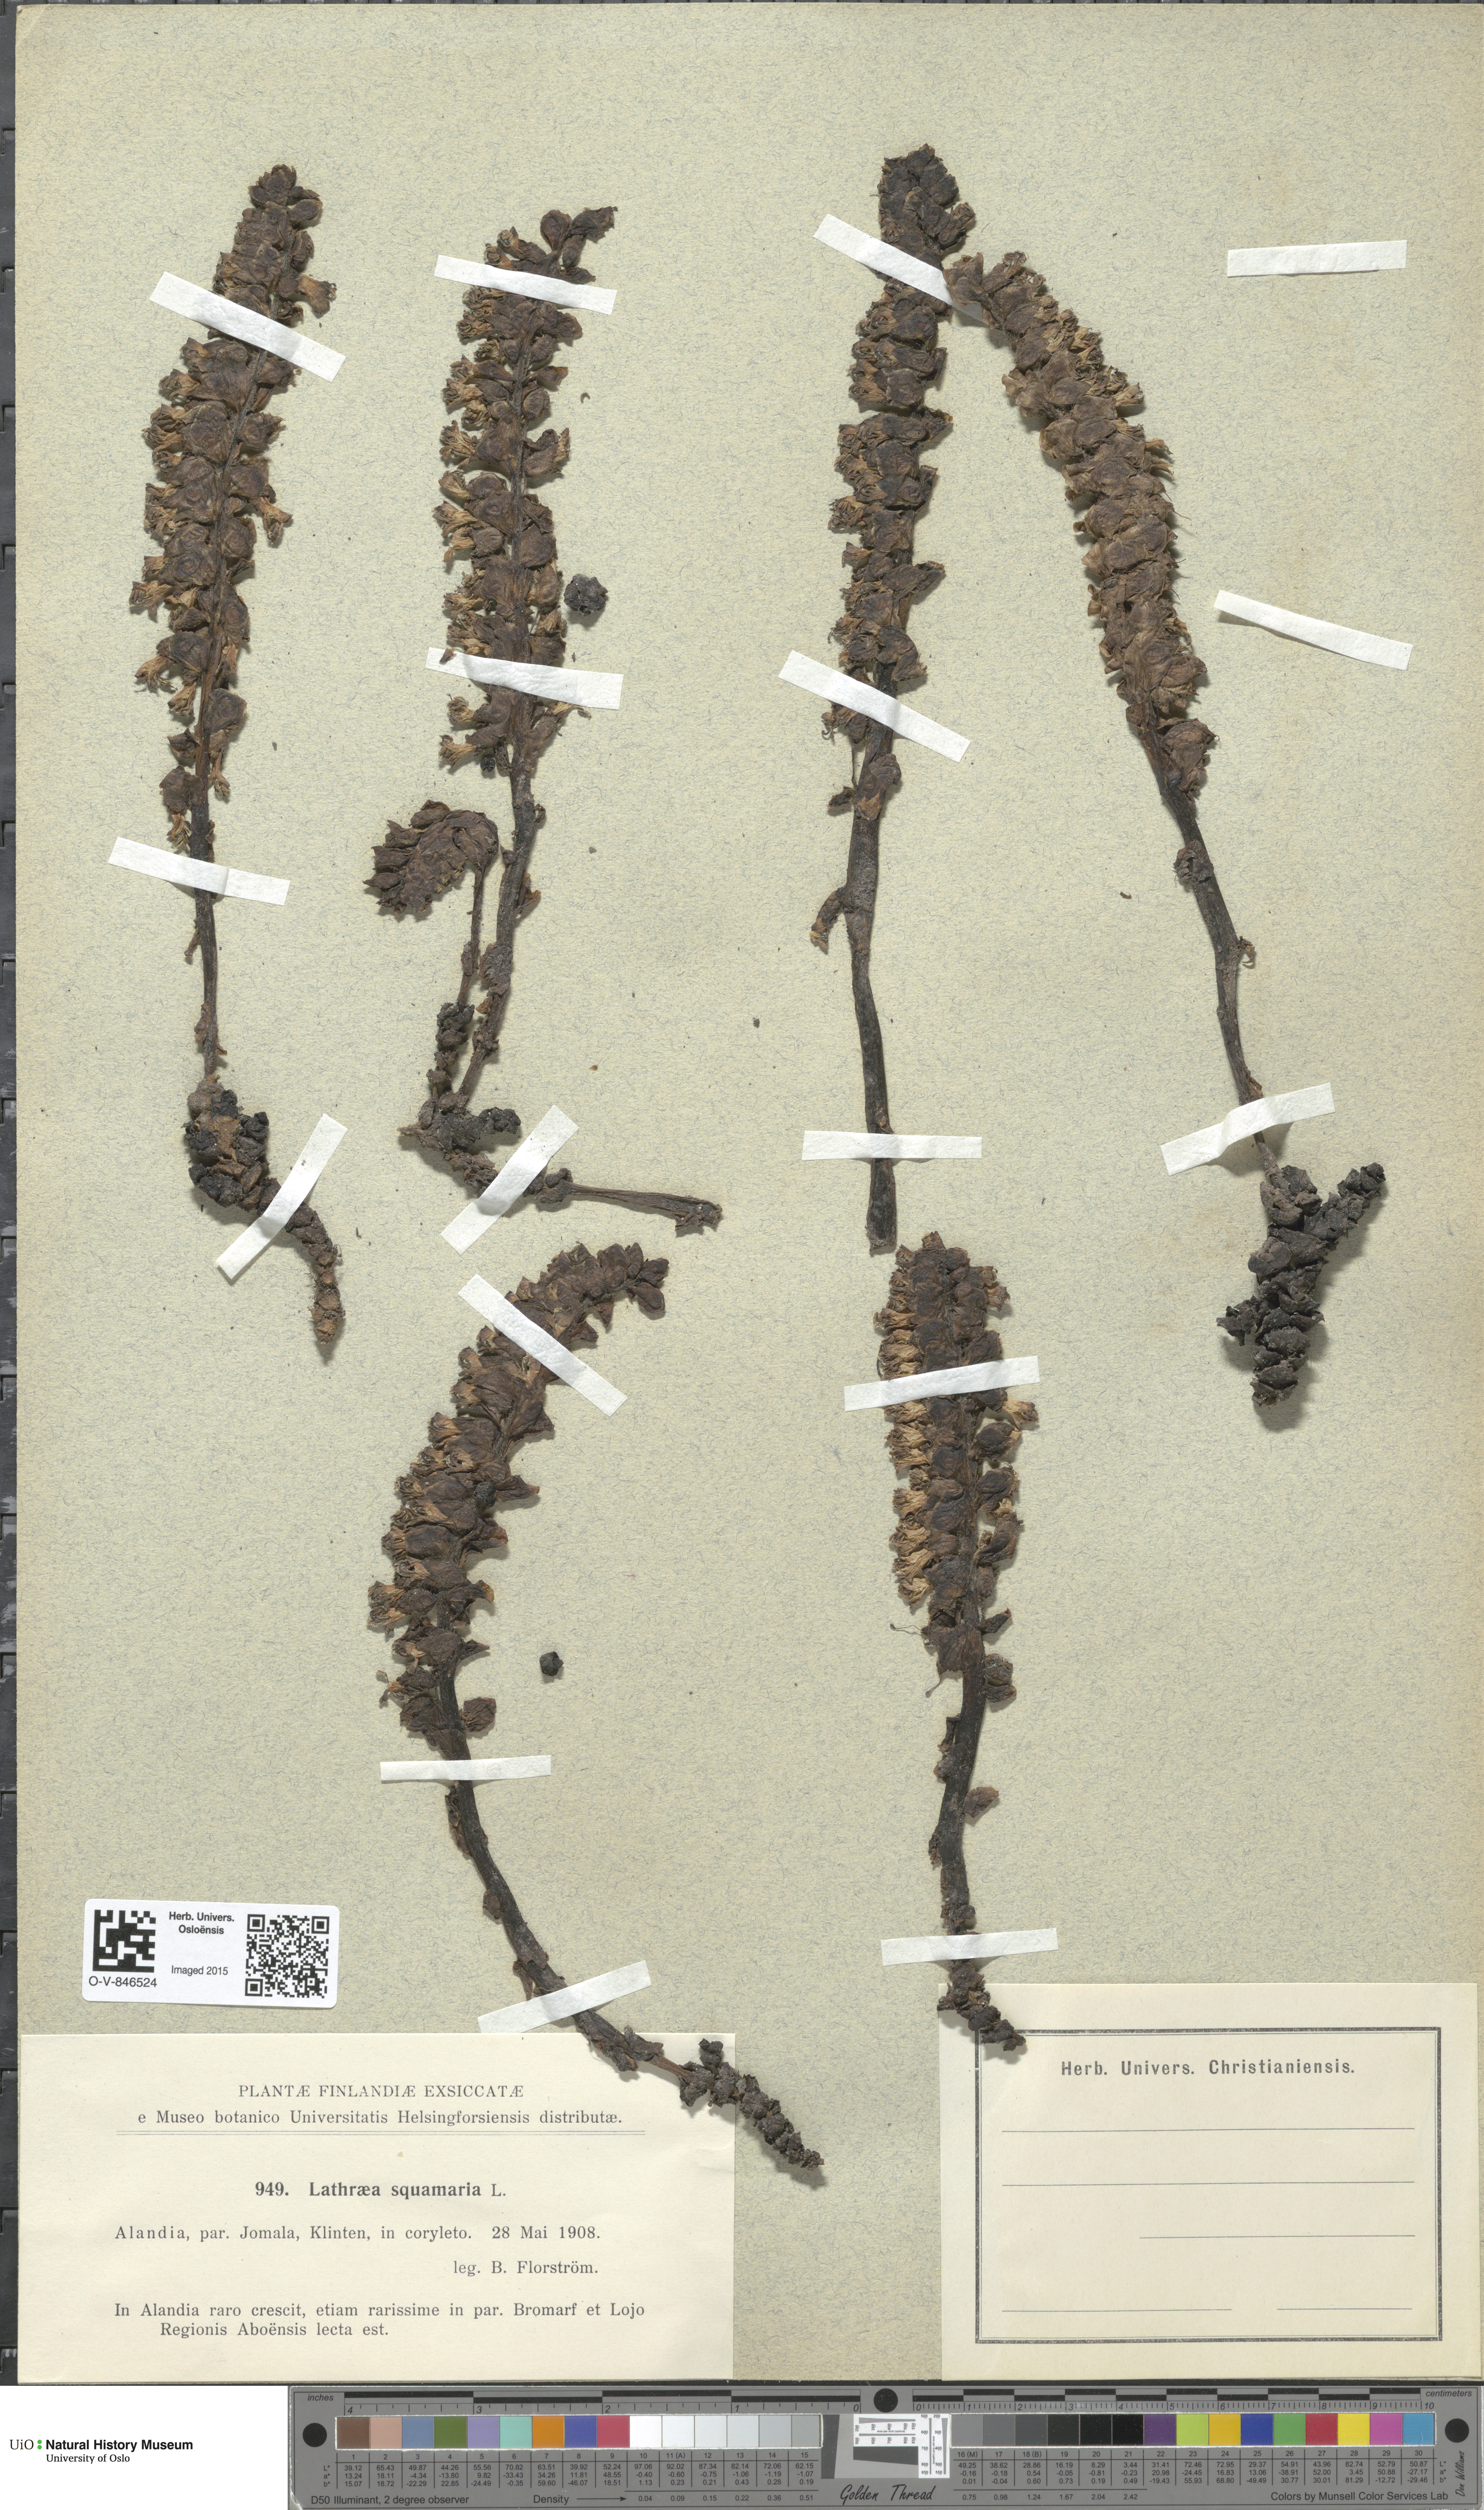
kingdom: Plantae
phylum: Tracheophyta
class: Magnoliopsida
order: Lamiales
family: Orobanchaceae
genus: Lathraea
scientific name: Lathraea squamaria
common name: Toothwort
